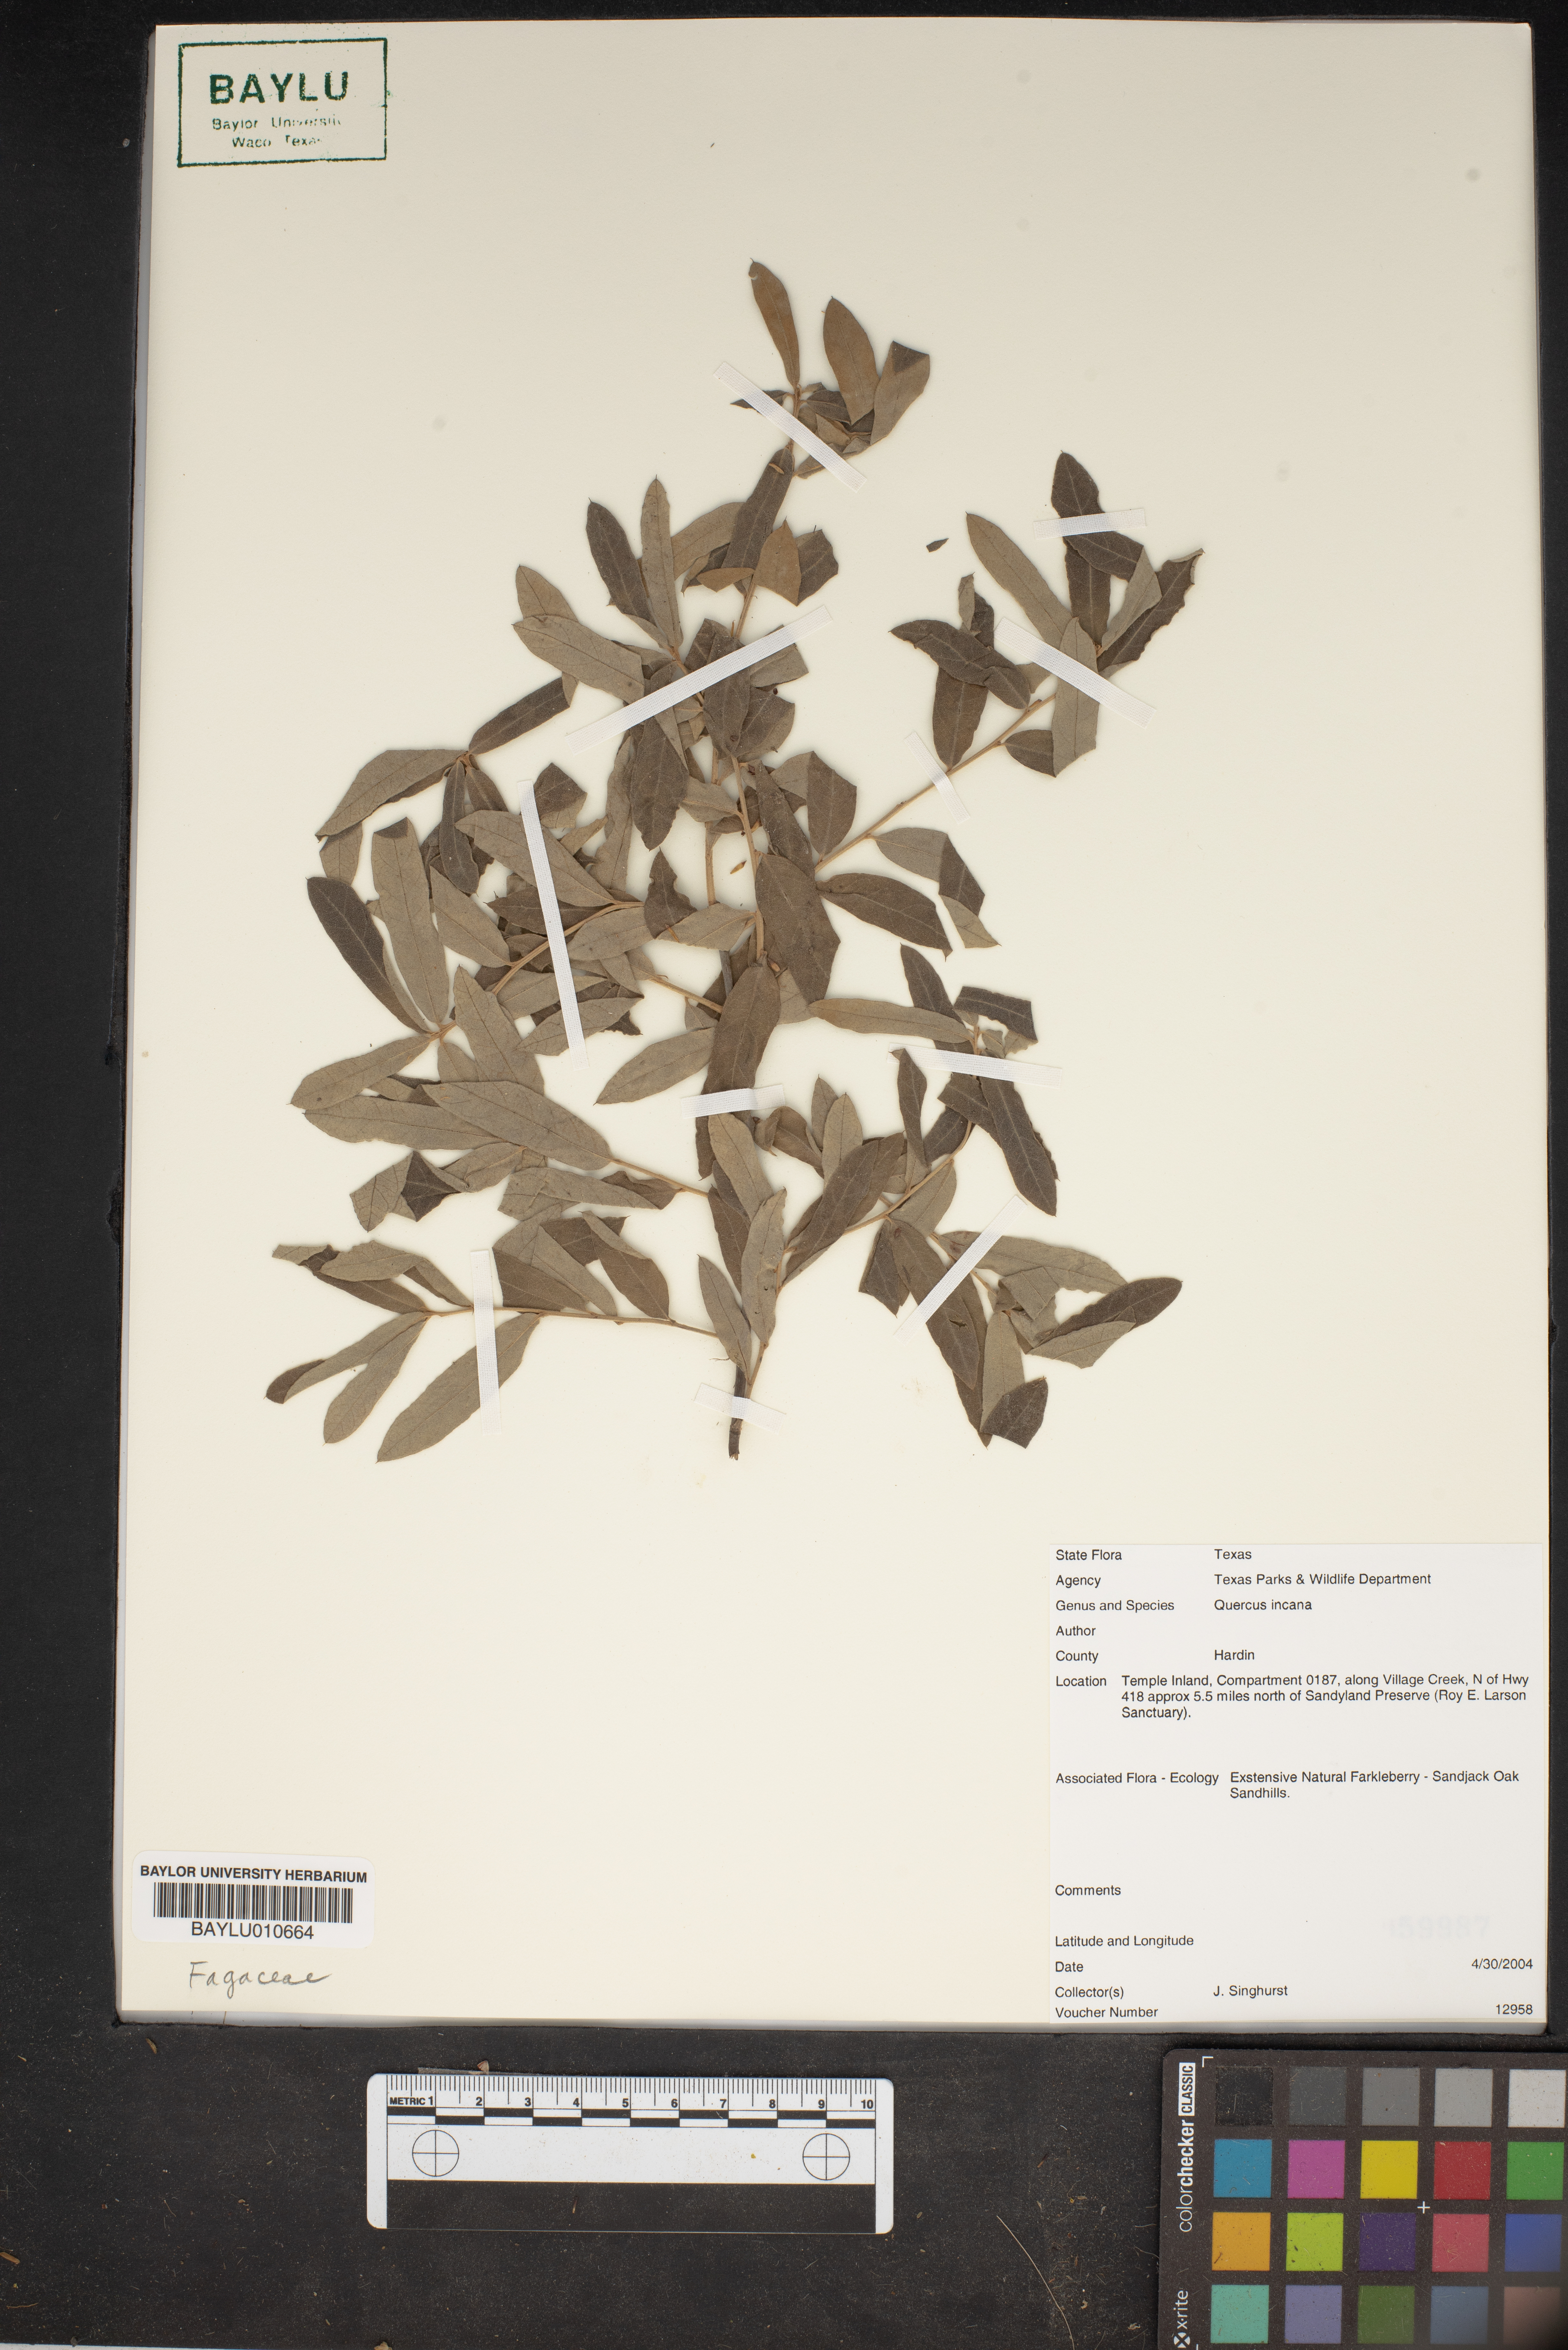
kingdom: Plantae
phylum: Tracheophyta
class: Magnoliopsida
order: Fagales
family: Fagaceae
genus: Quercus
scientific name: Quercus incana
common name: Bluejack oak
